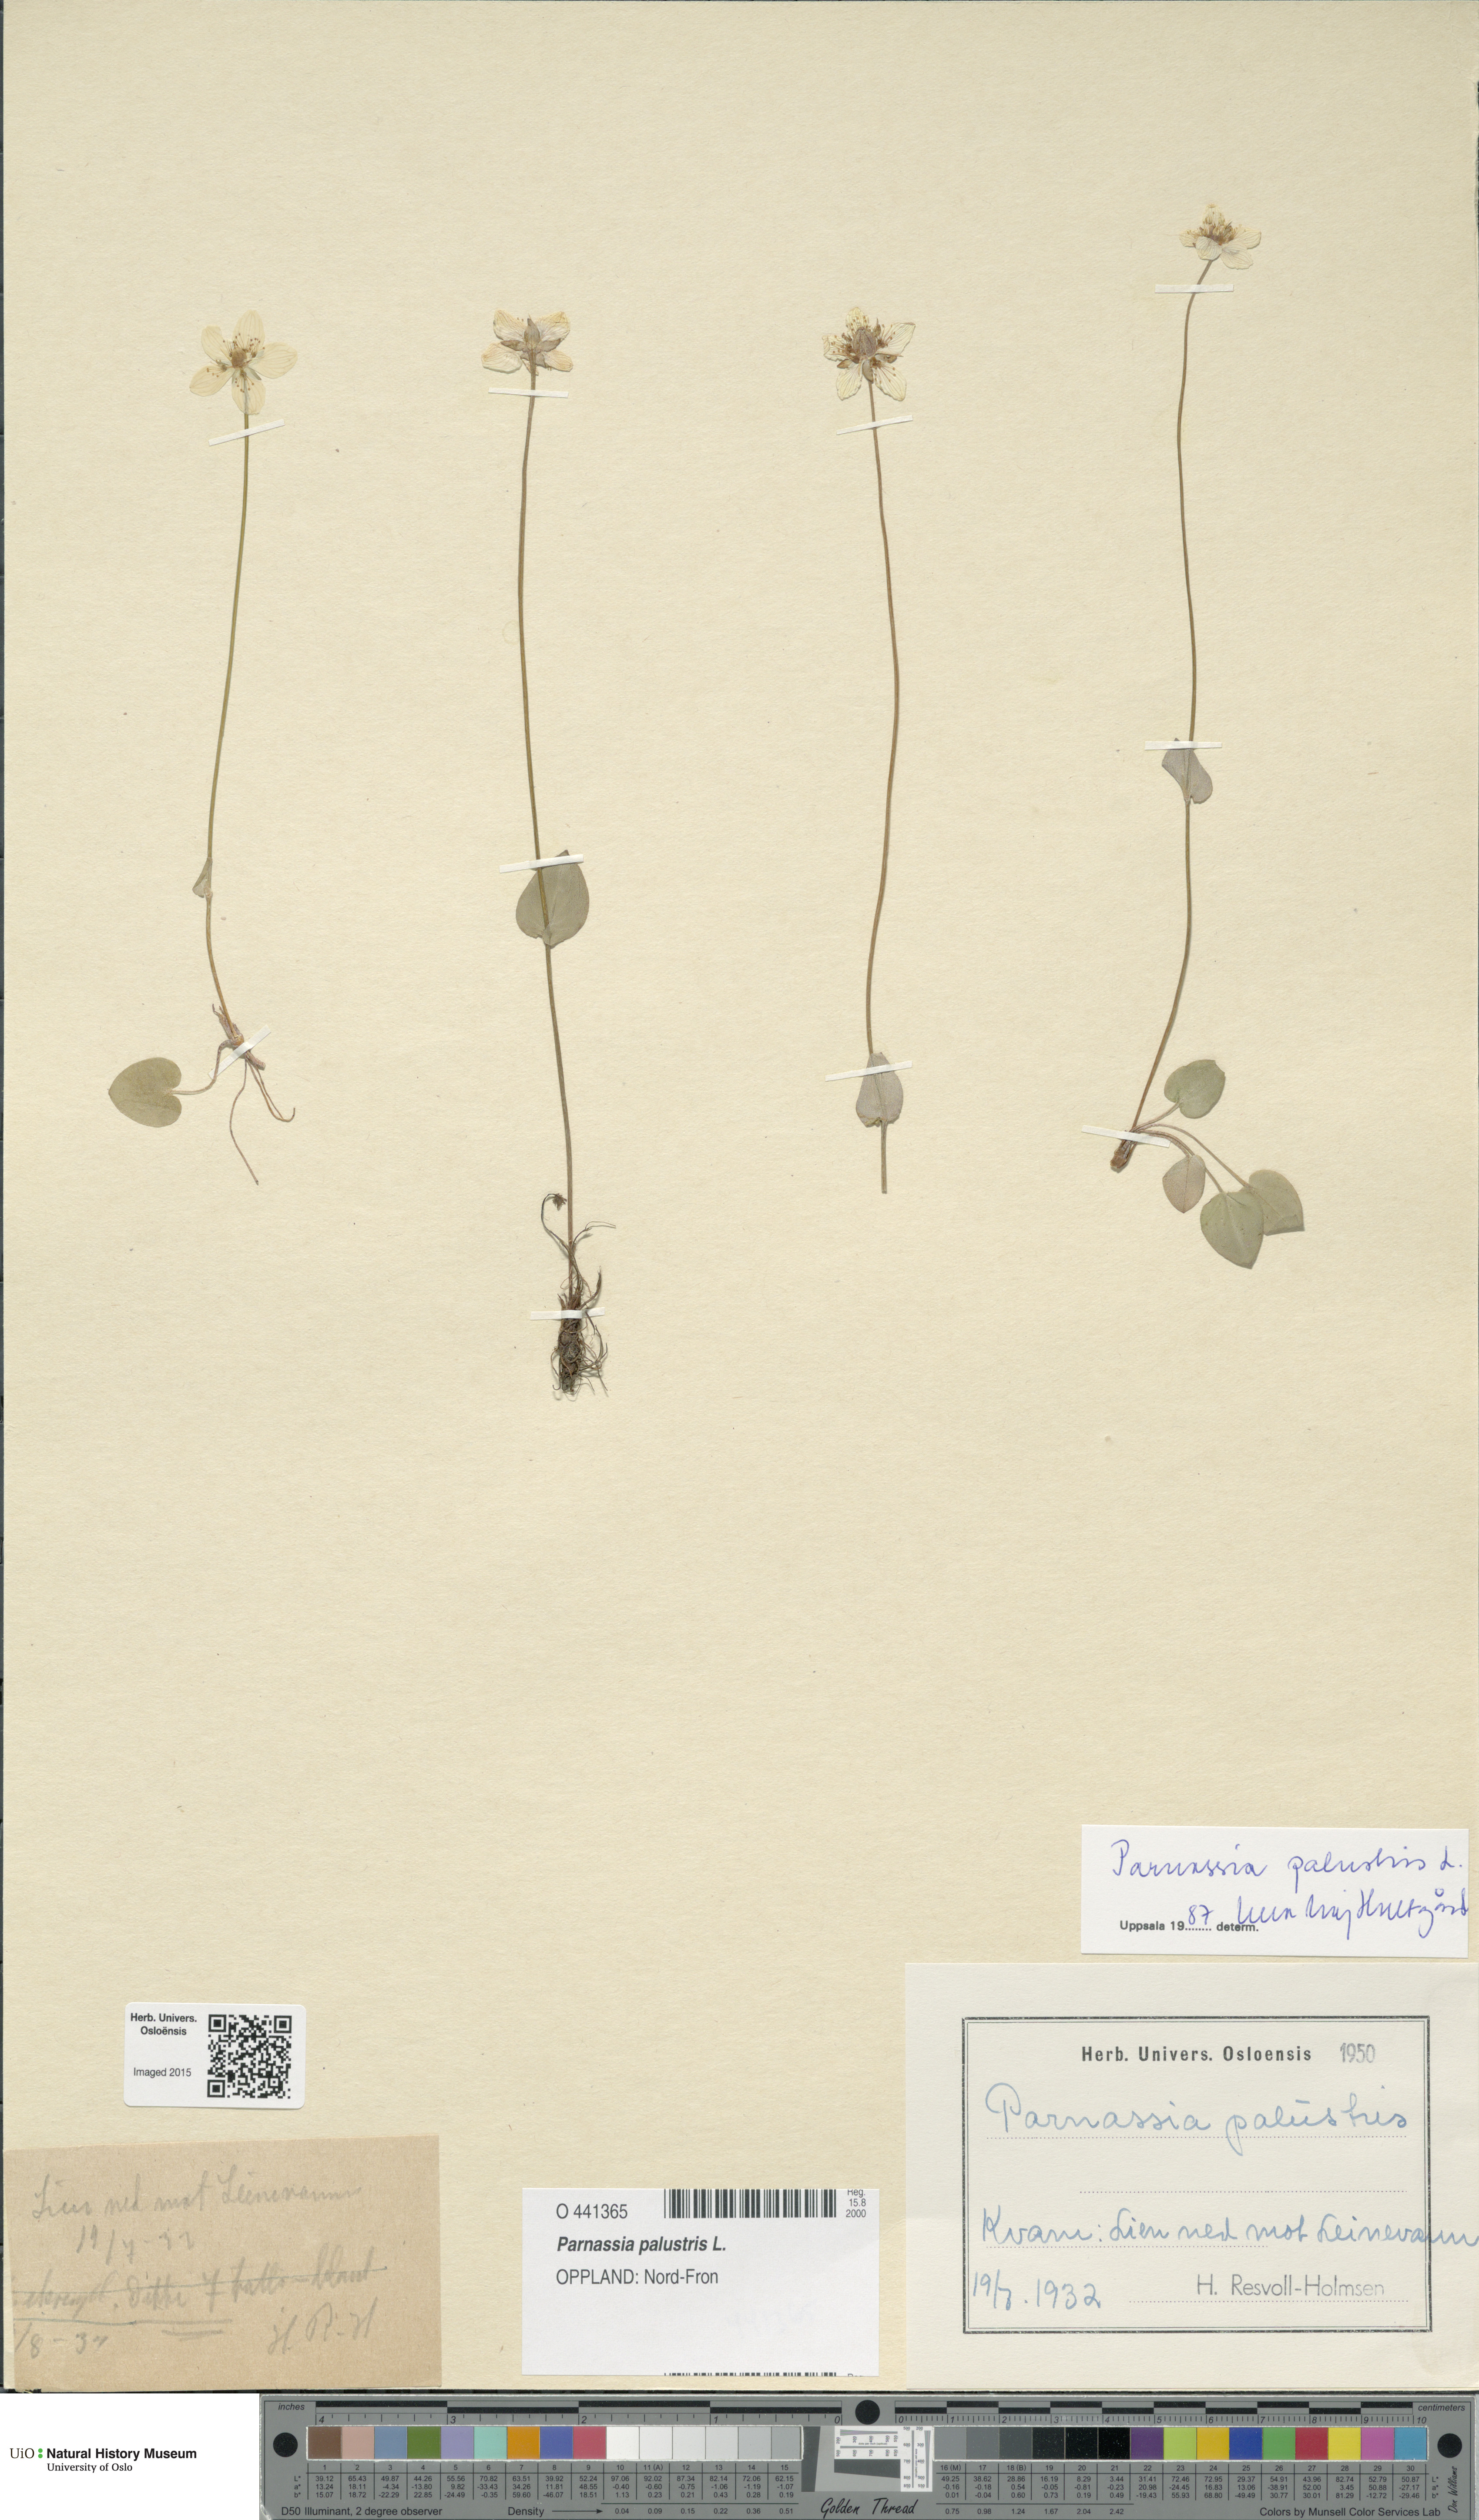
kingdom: Plantae
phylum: Tracheophyta
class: Magnoliopsida
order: Celastrales
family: Parnassiaceae
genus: Parnassia
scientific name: Parnassia palustris
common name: Grass-of-parnassus
